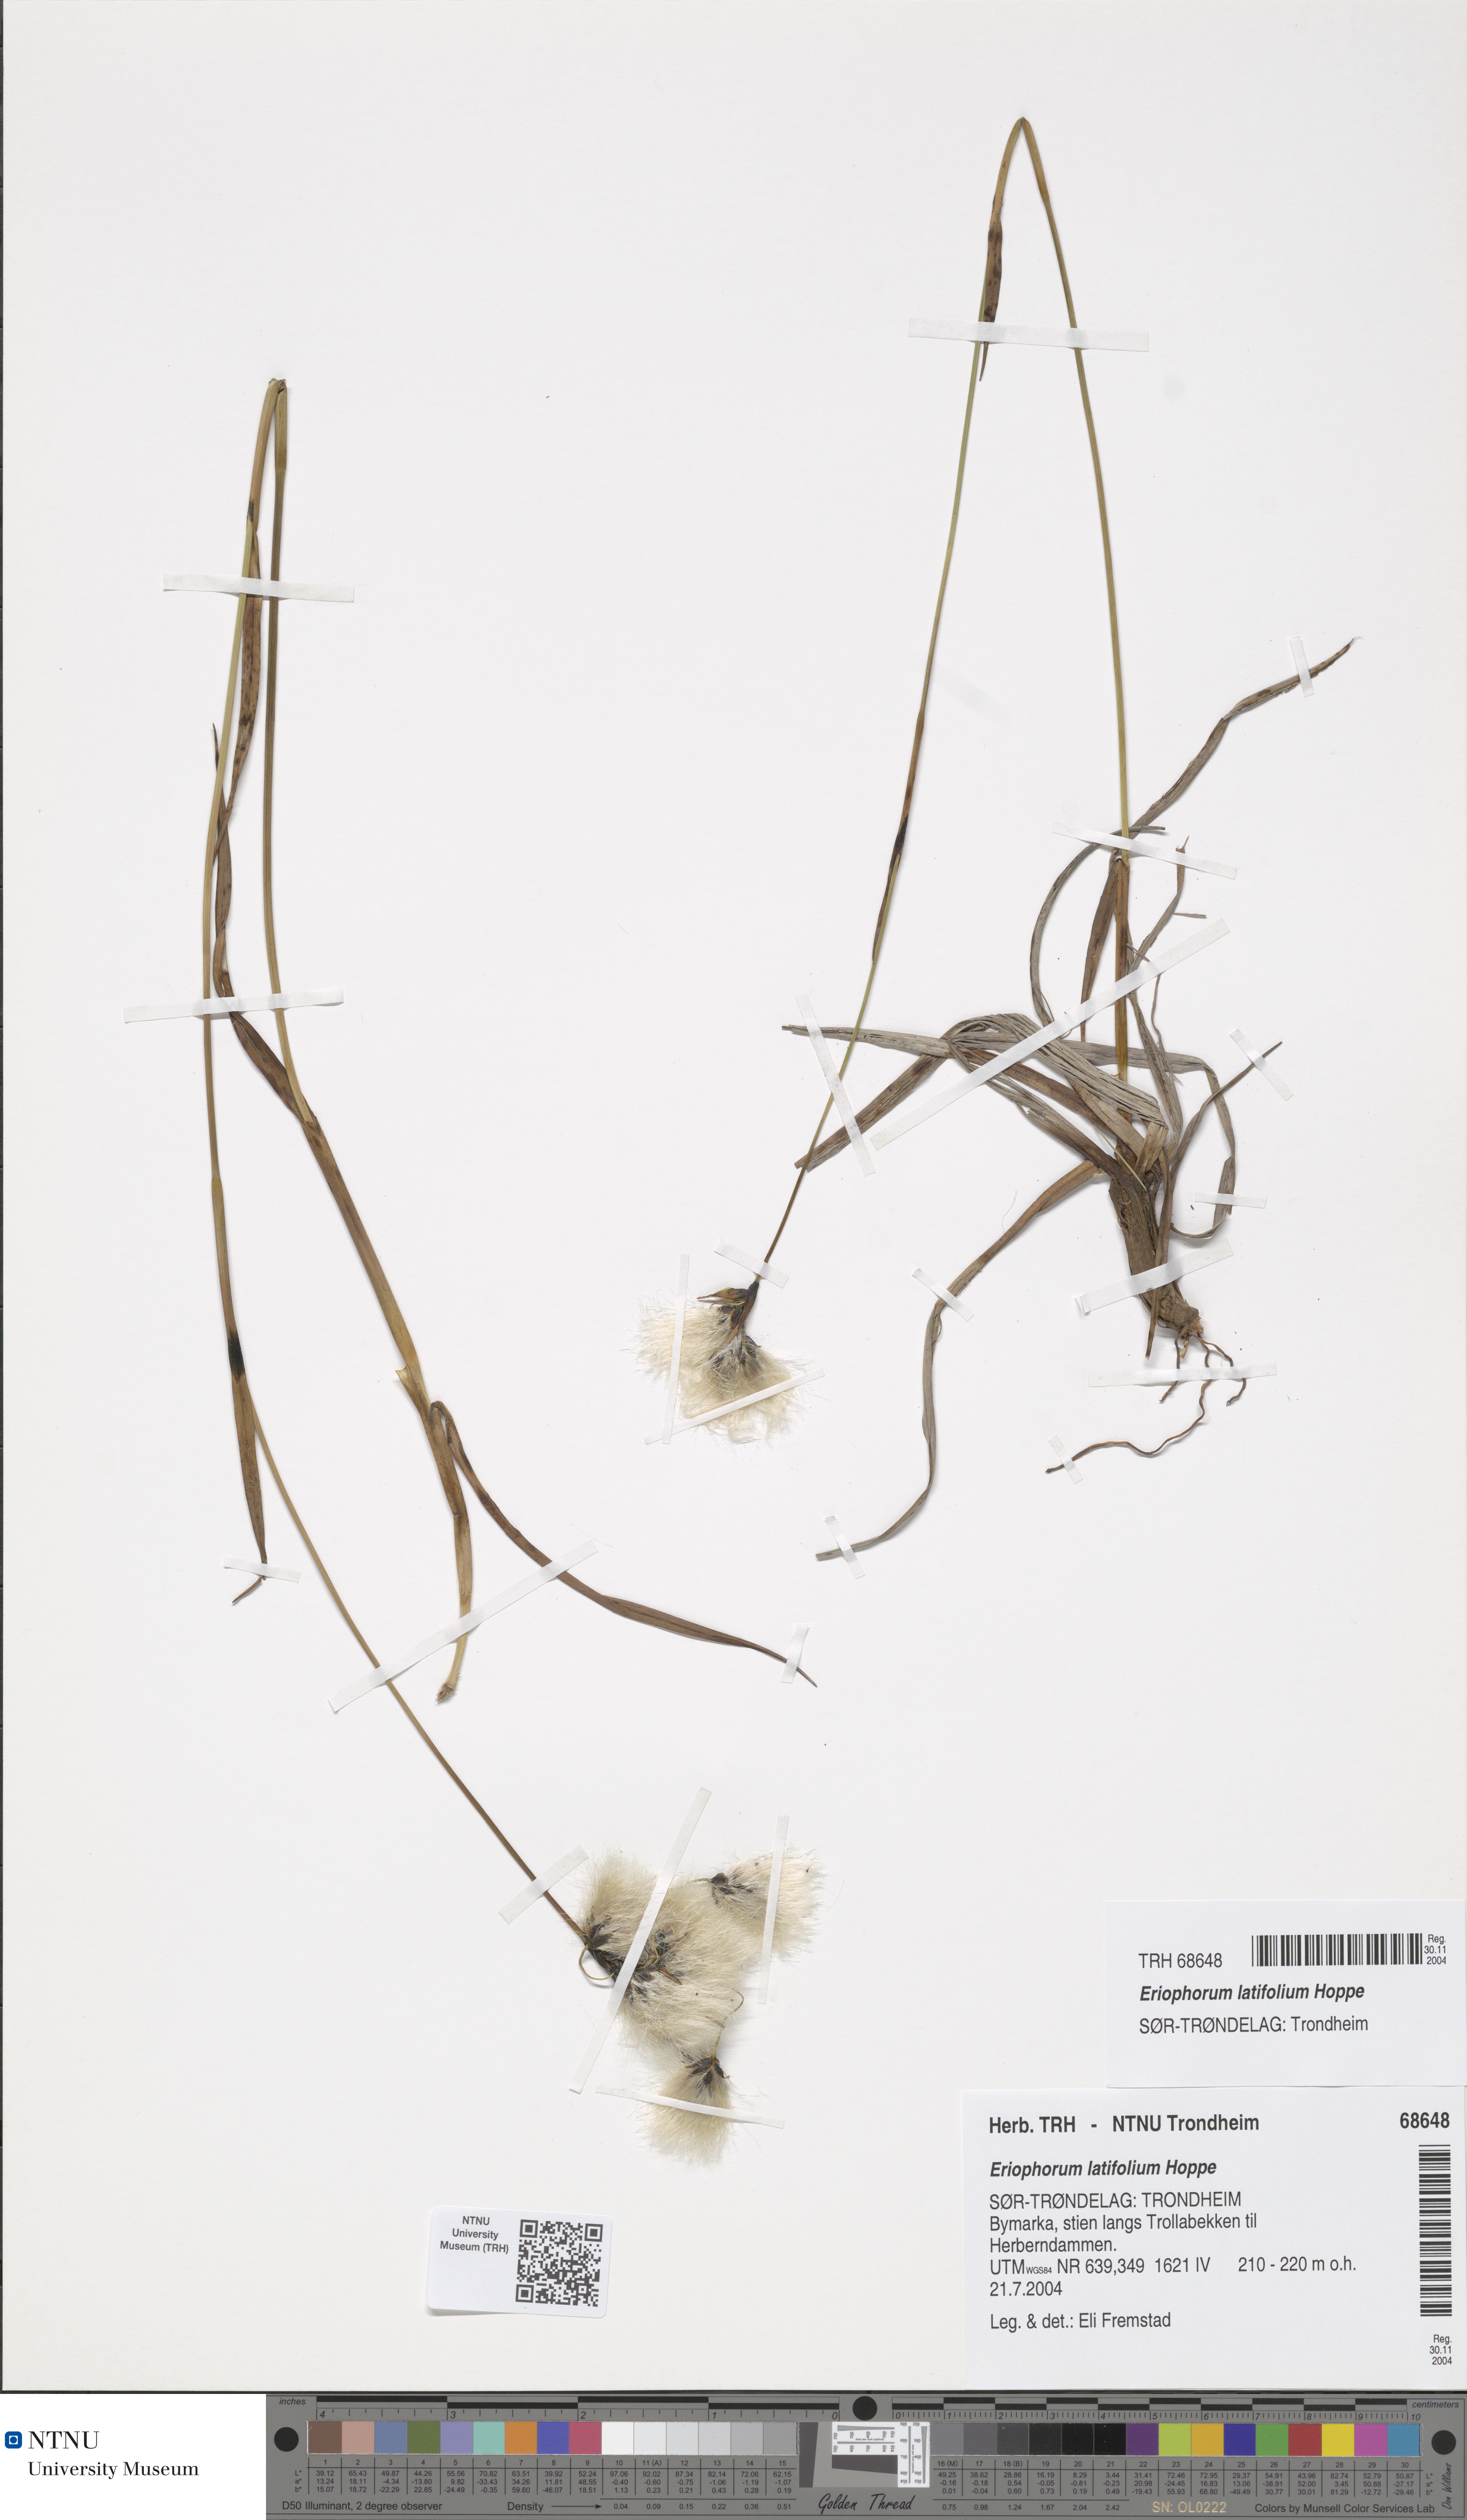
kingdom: Plantae
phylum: Tracheophyta
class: Liliopsida
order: Poales
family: Cyperaceae
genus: Eriophorum
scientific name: Eriophorum latifolium
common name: Broad-leaved cottongrass
